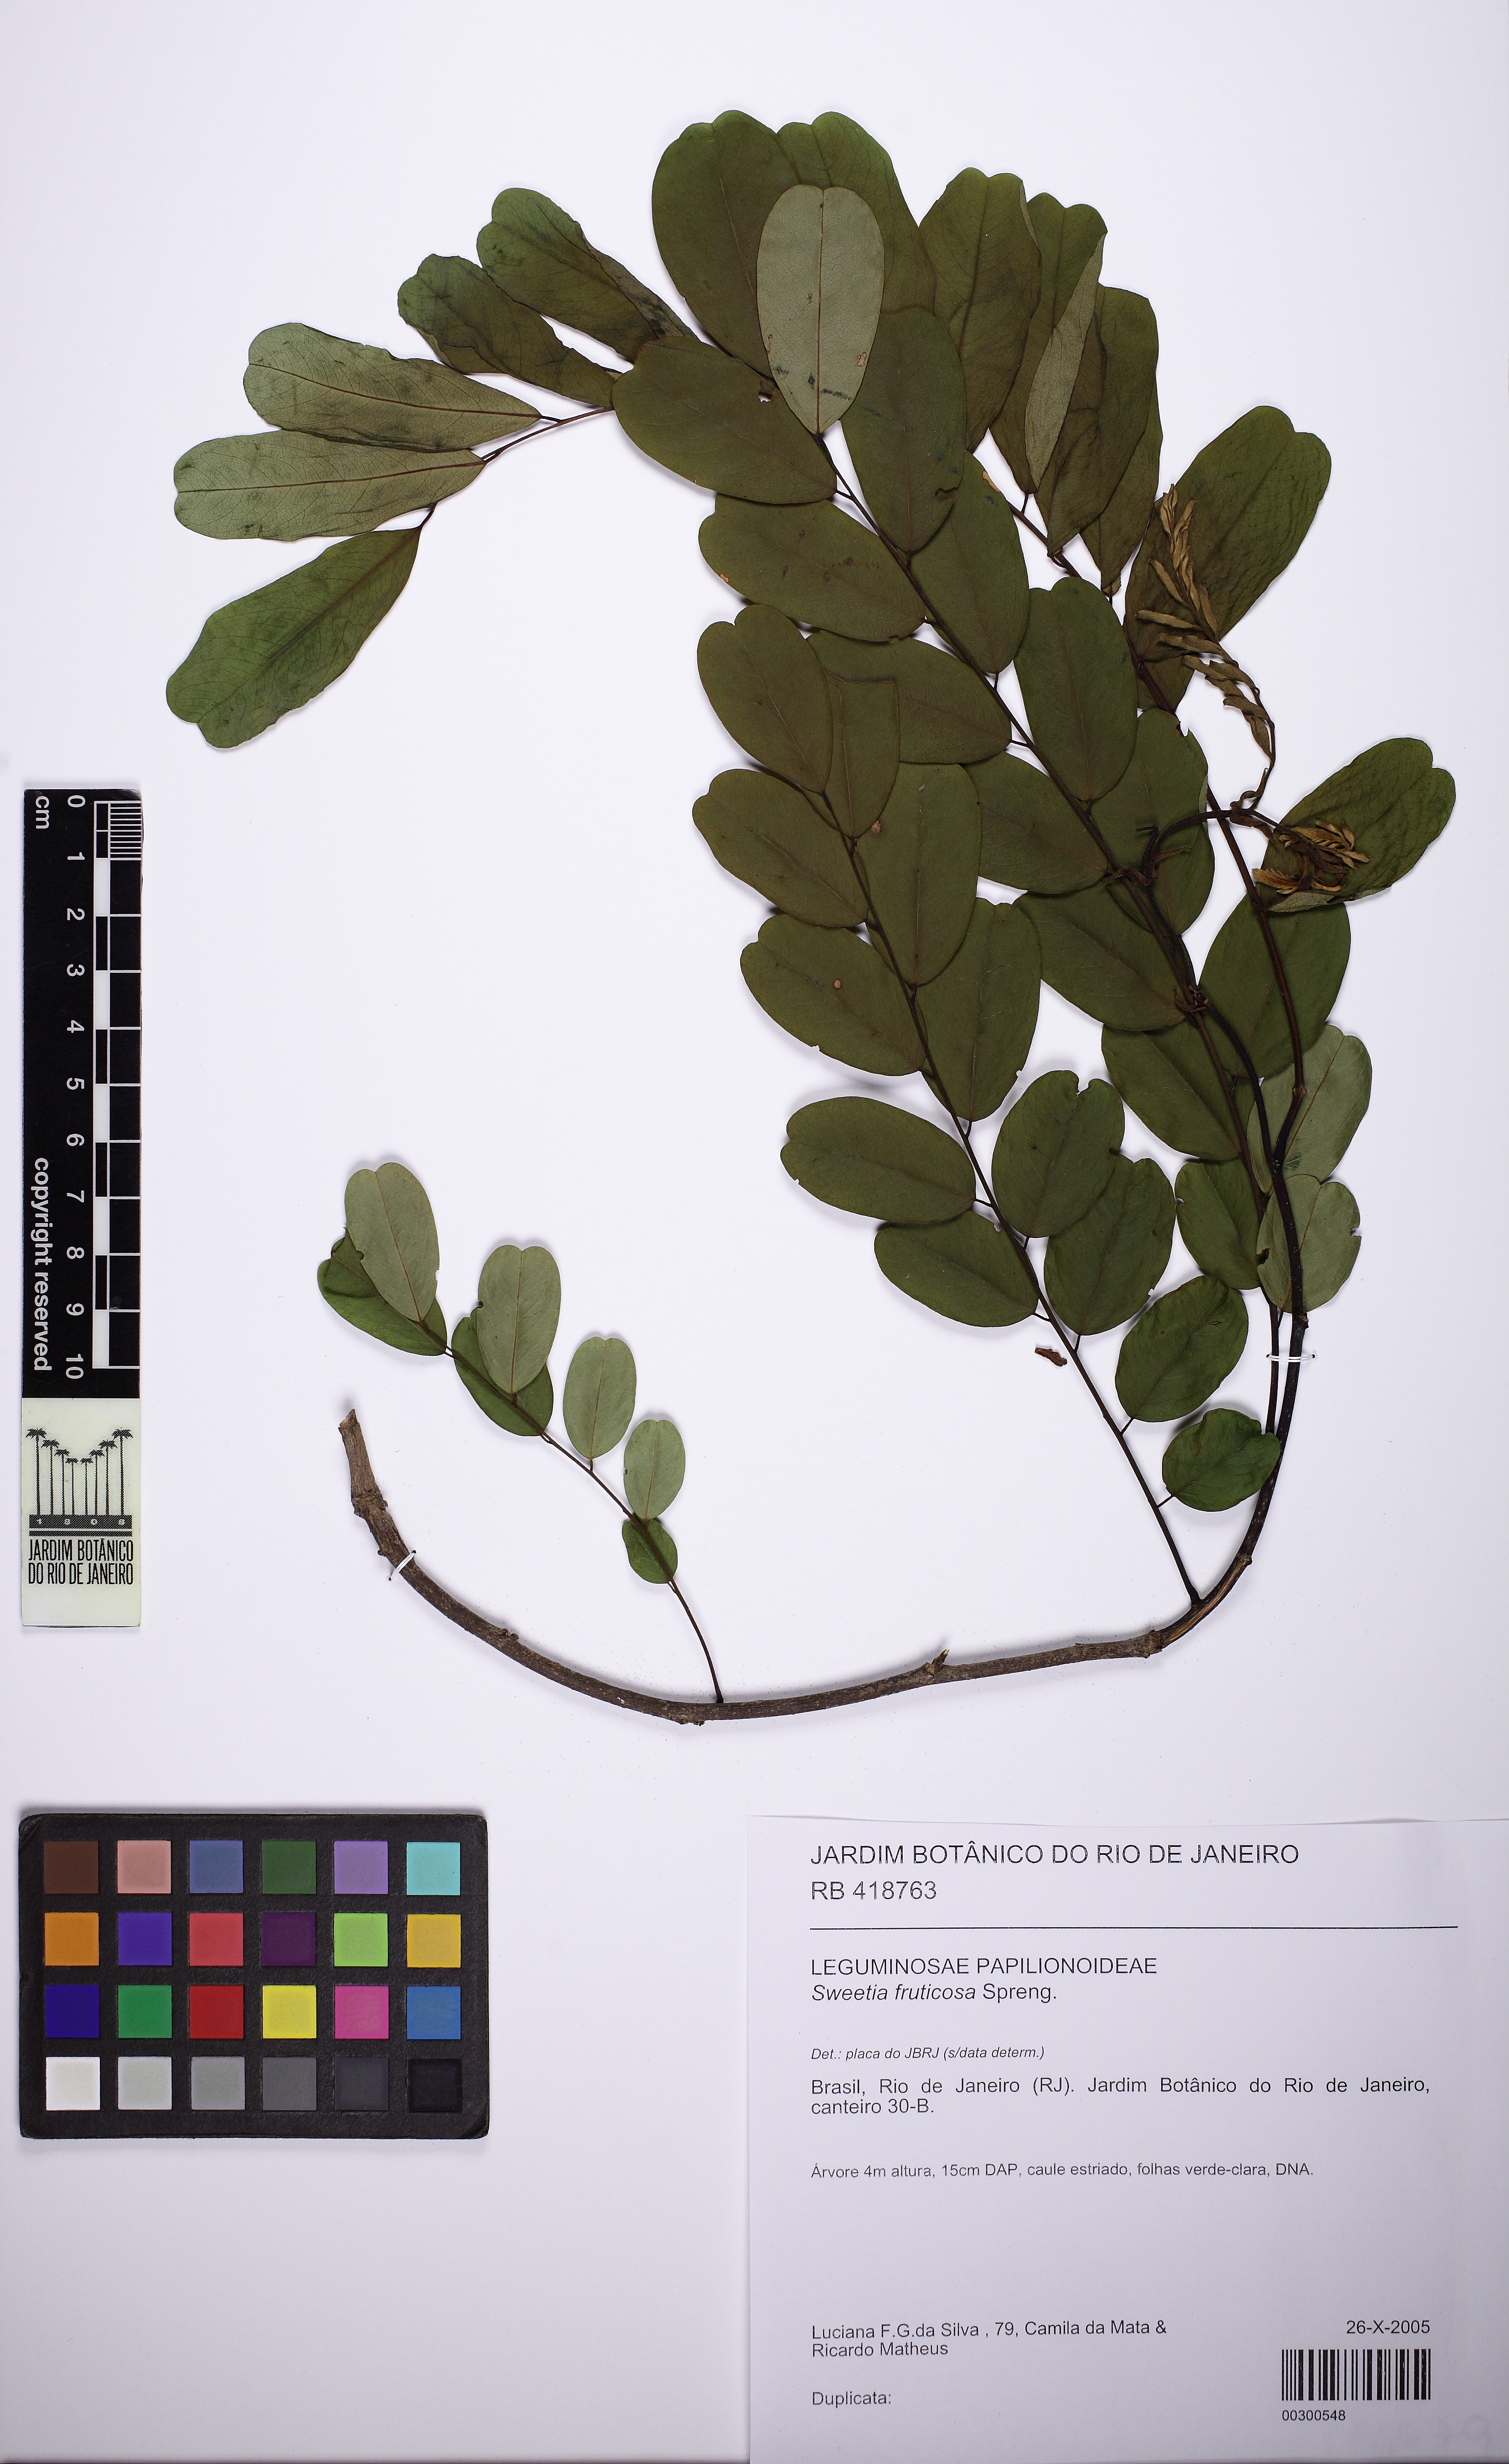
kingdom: Plantae
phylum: Tracheophyta
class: Magnoliopsida
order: Fabales
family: Fabaceae
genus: Sweetia
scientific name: Sweetia fruticosa
